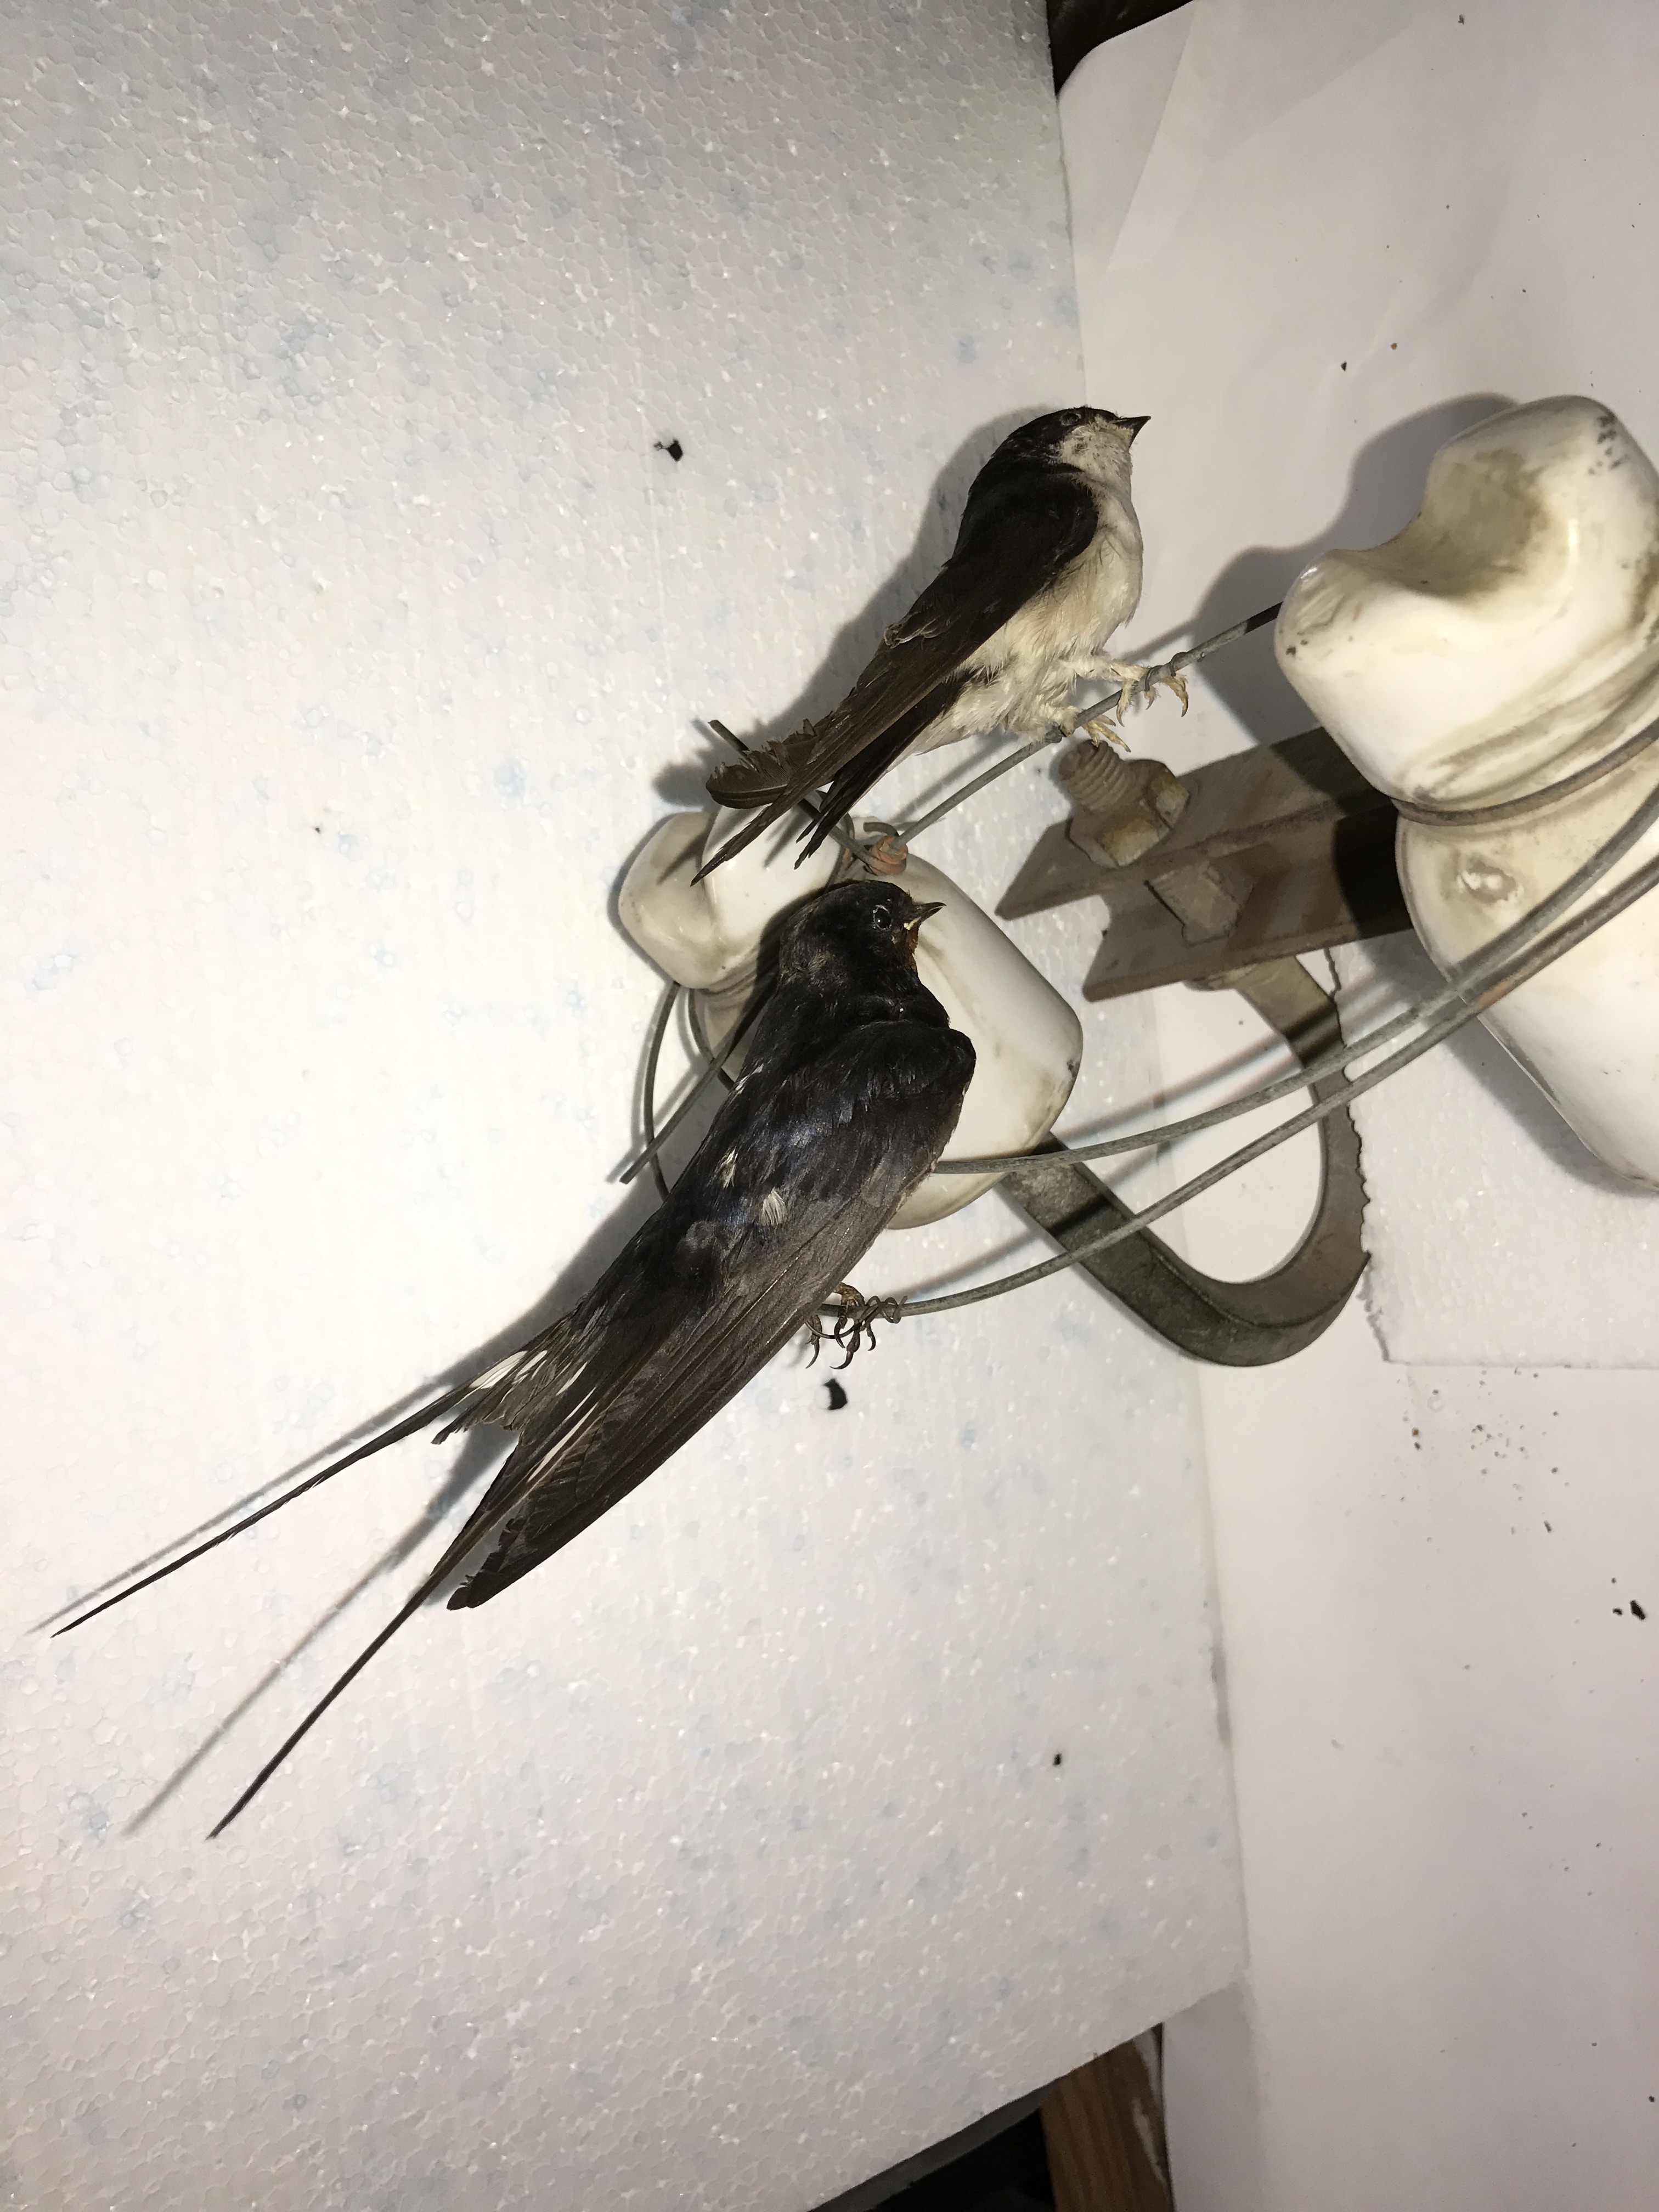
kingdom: Animalia
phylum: Chordata
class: Aves
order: Passeriformes
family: Hirundinidae
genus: Delichon
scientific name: Delichon urbicum
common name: Common house martin
